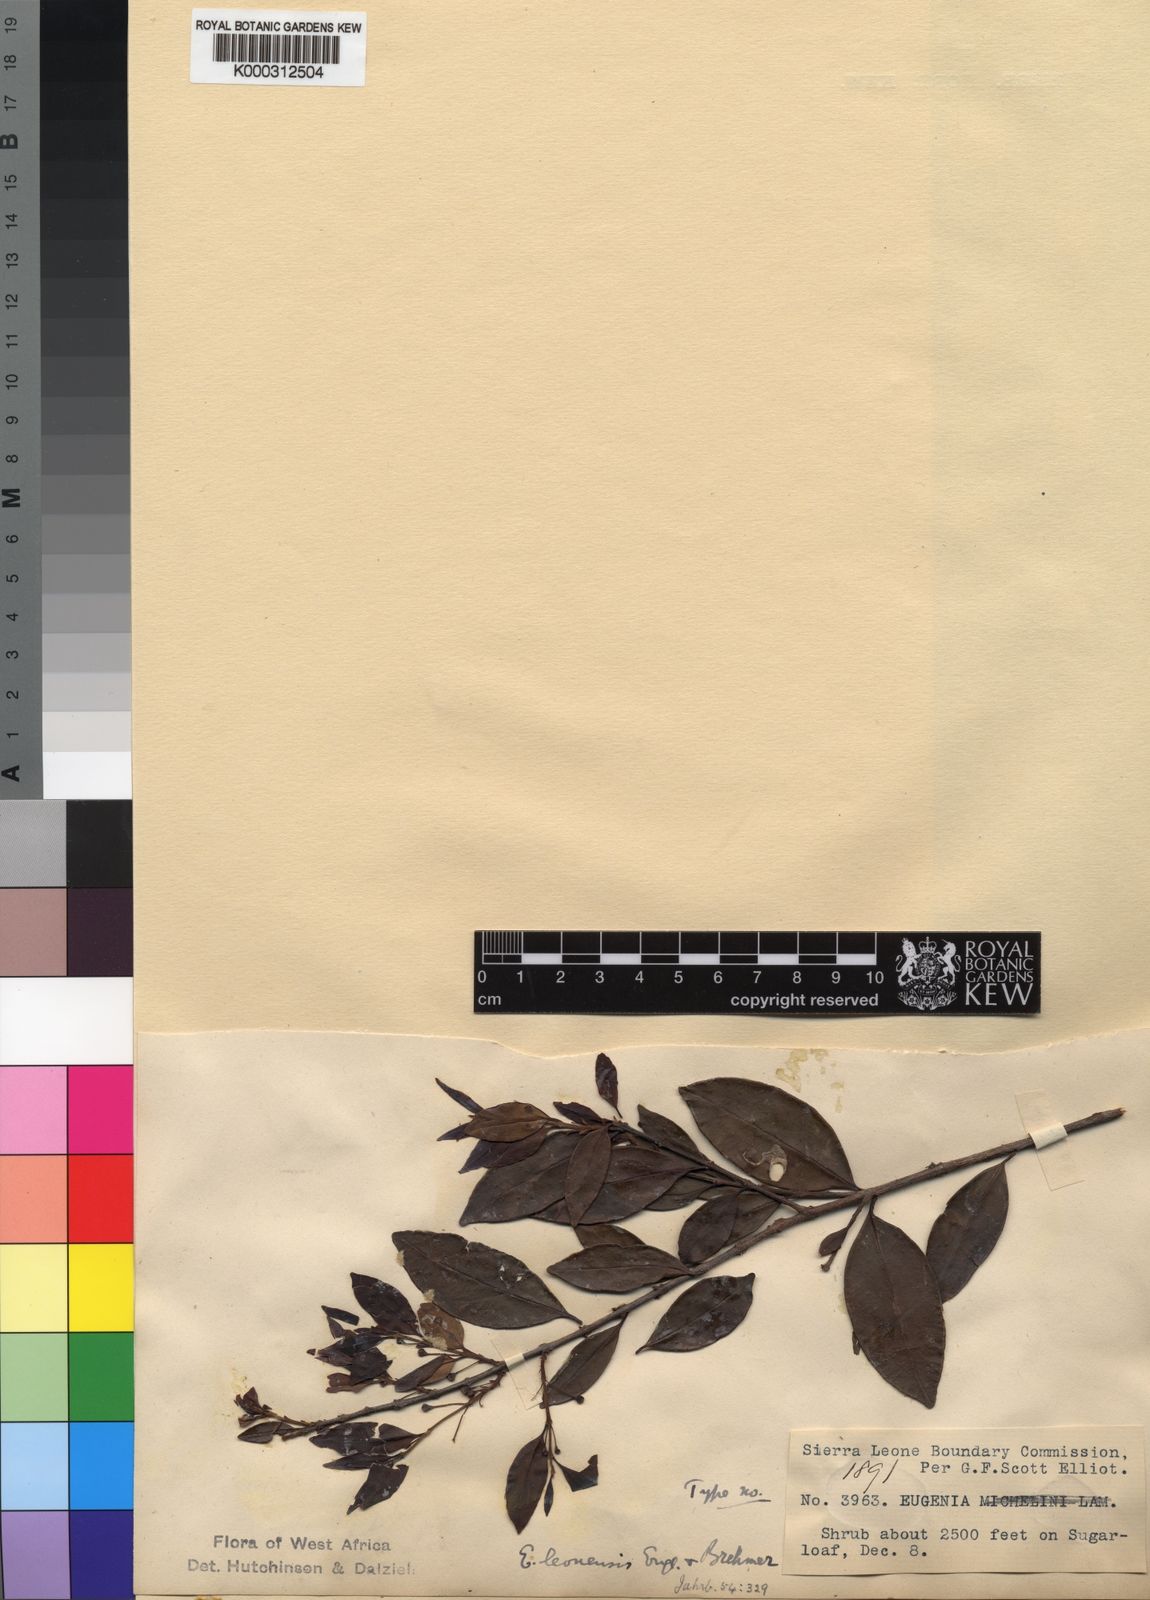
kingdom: Plantae
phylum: Tracheophyta
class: Magnoliopsida
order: Myrtales
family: Myrtaceae
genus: Eugenia
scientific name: Eugenia leonensis
